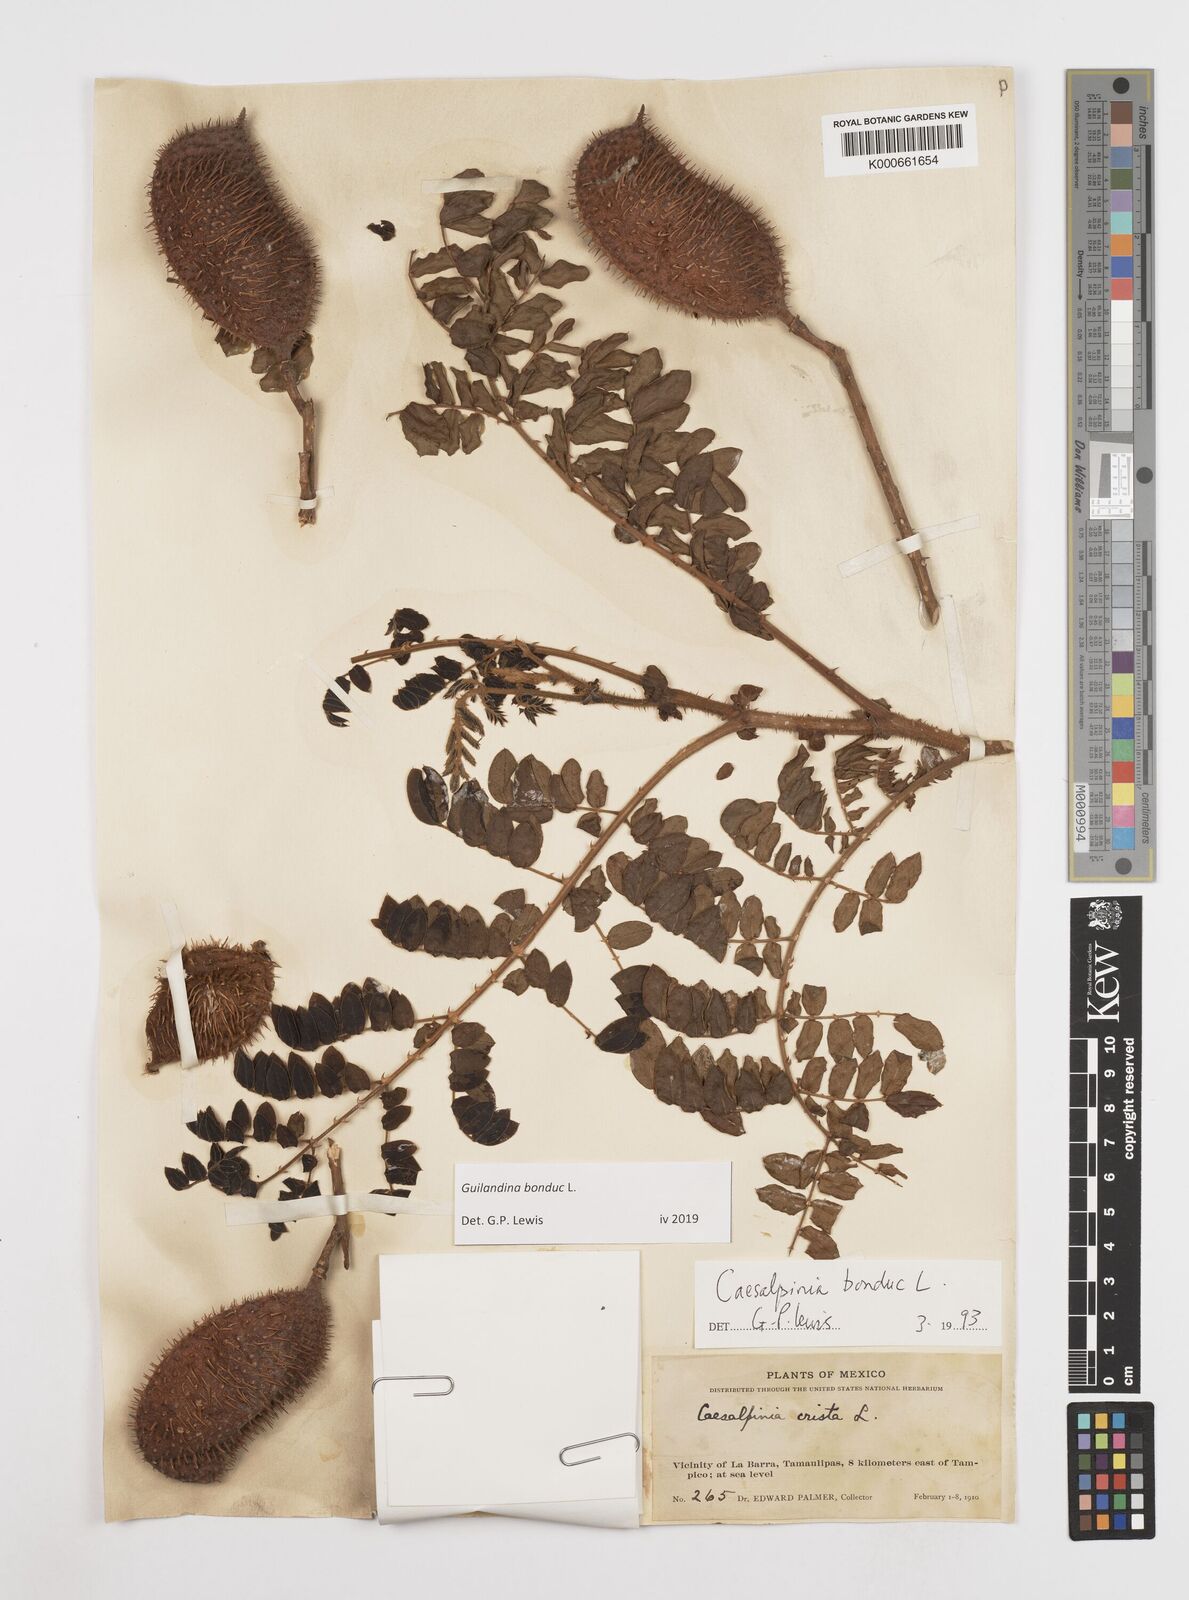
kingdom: Plantae
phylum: Tracheophyta
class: Magnoliopsida
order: Asterales
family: Goodeniaceae
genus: Scaevola
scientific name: Scaevola taccada
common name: Sea lettucetree
